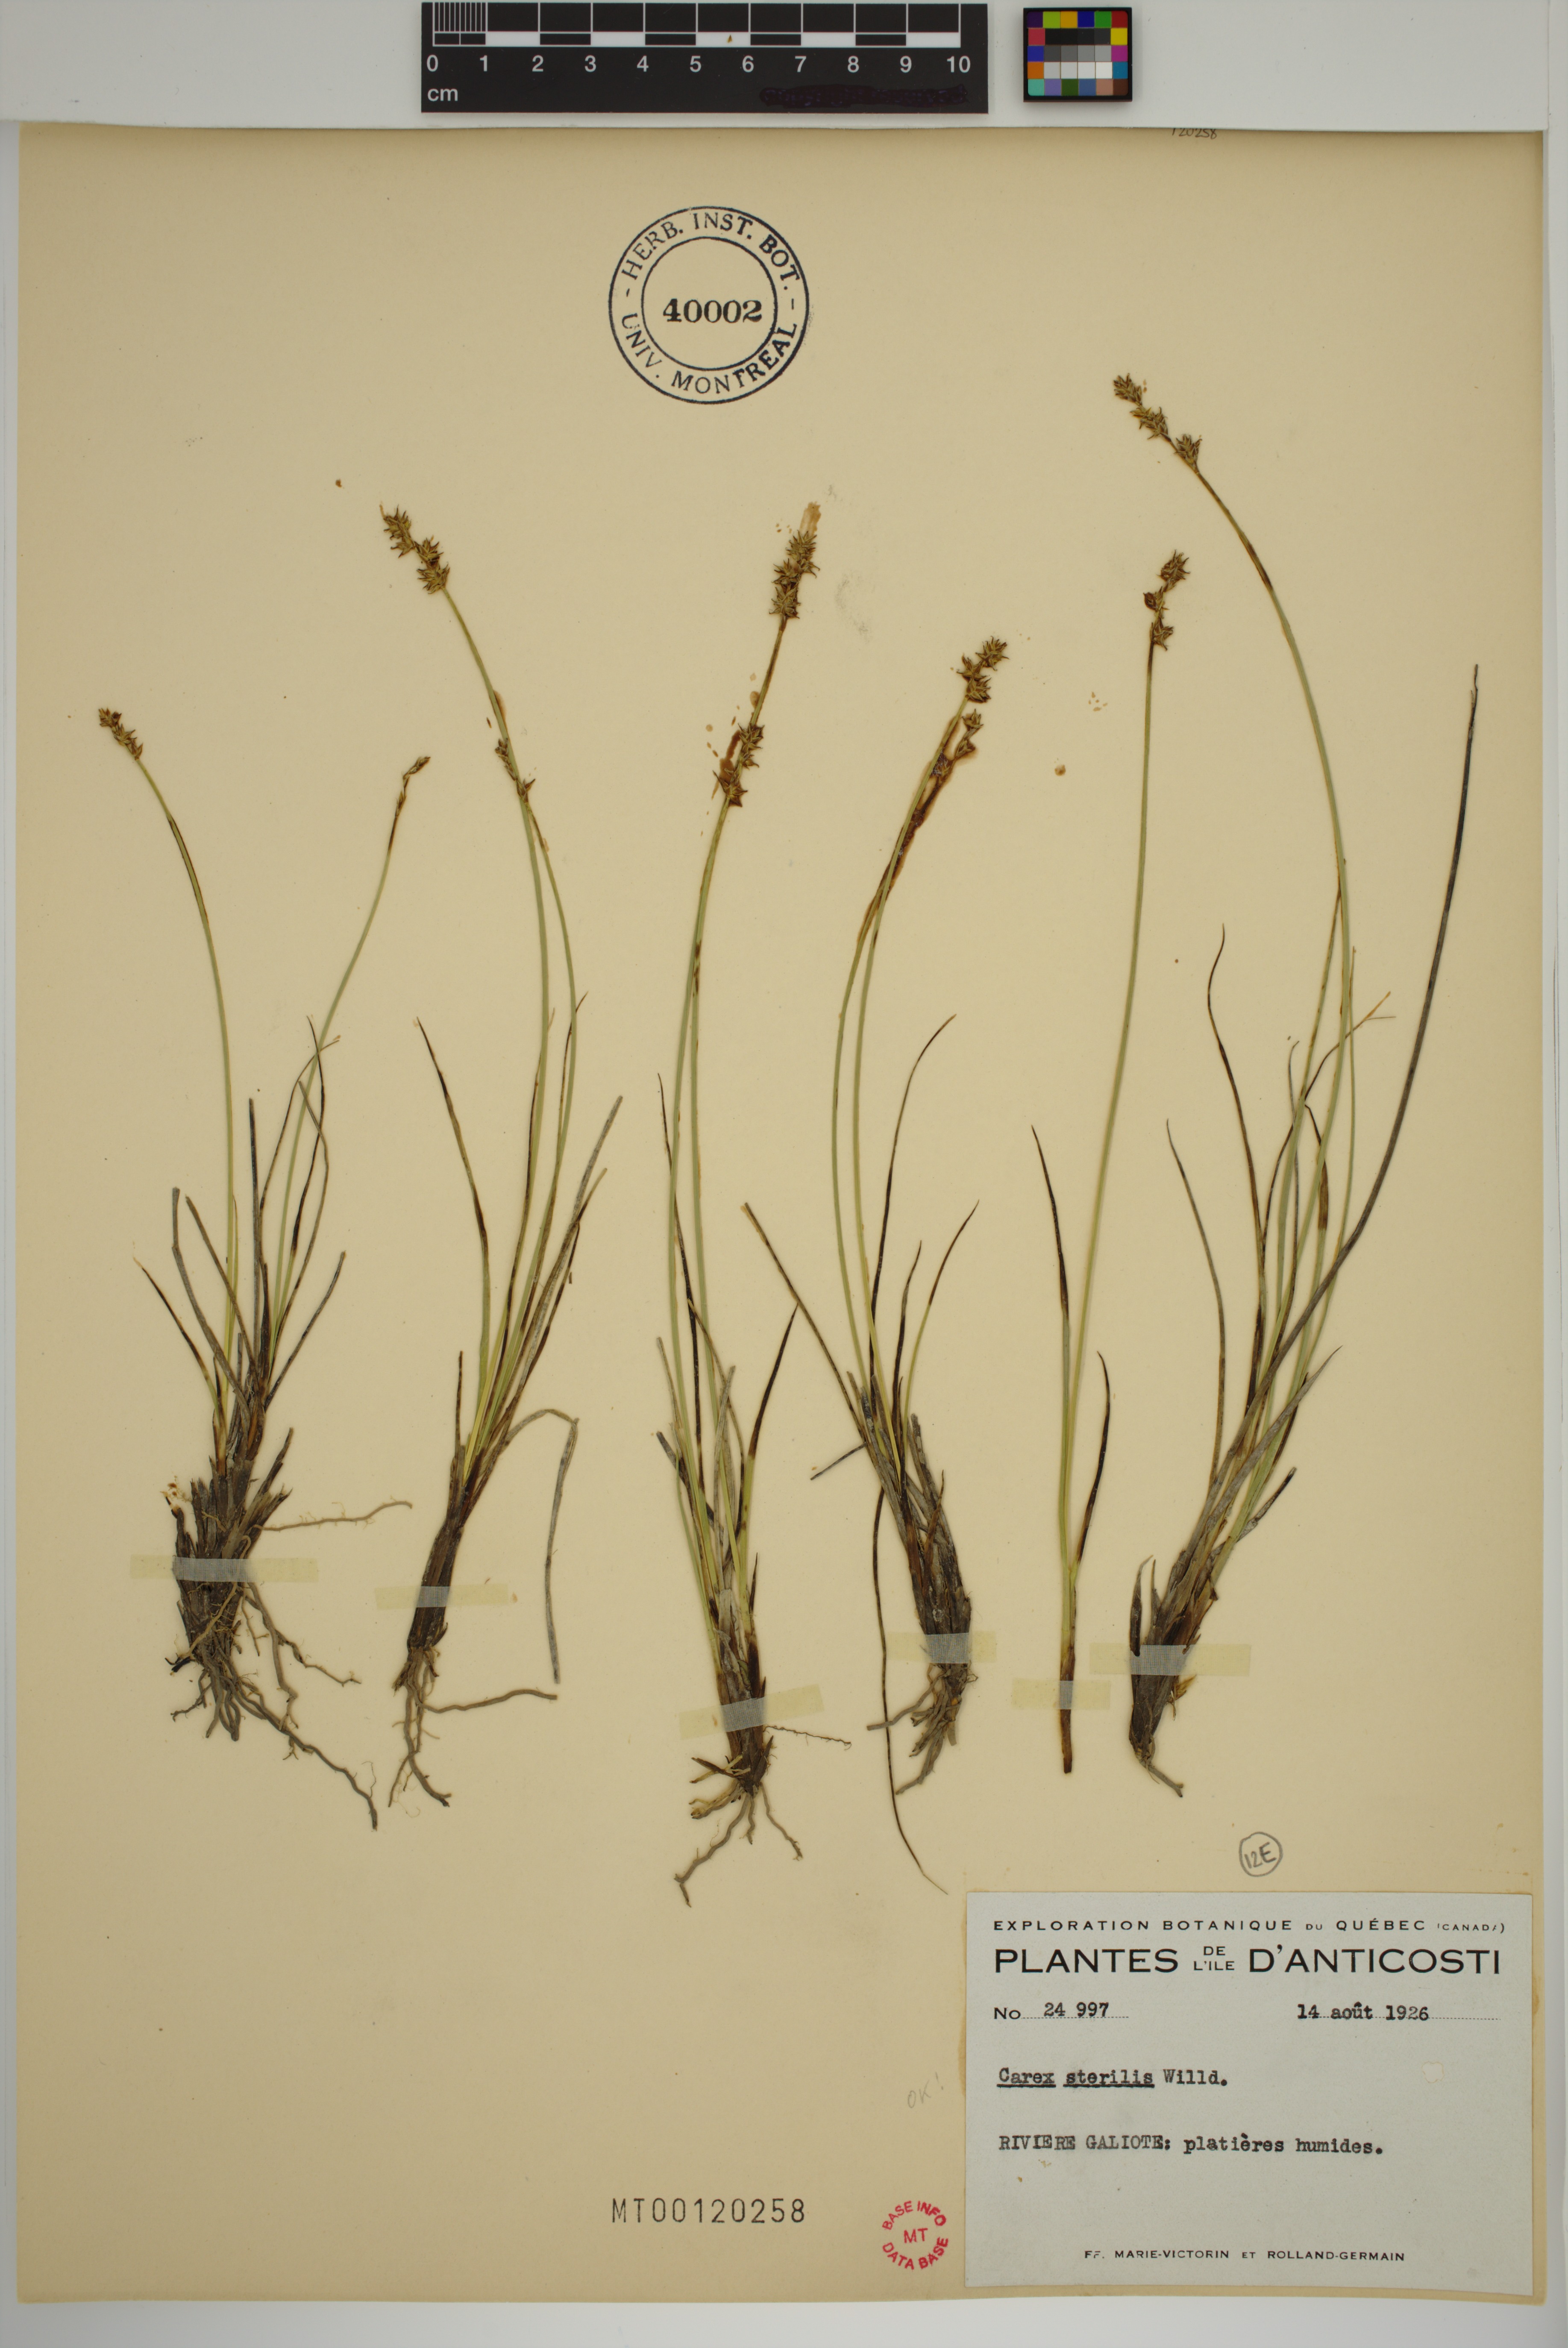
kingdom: Plantae
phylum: Tracheophyta
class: Liliopsida
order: Poales
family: Cyperaceae
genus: Carex
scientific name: Carex sterilis
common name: Dioecious sedge
